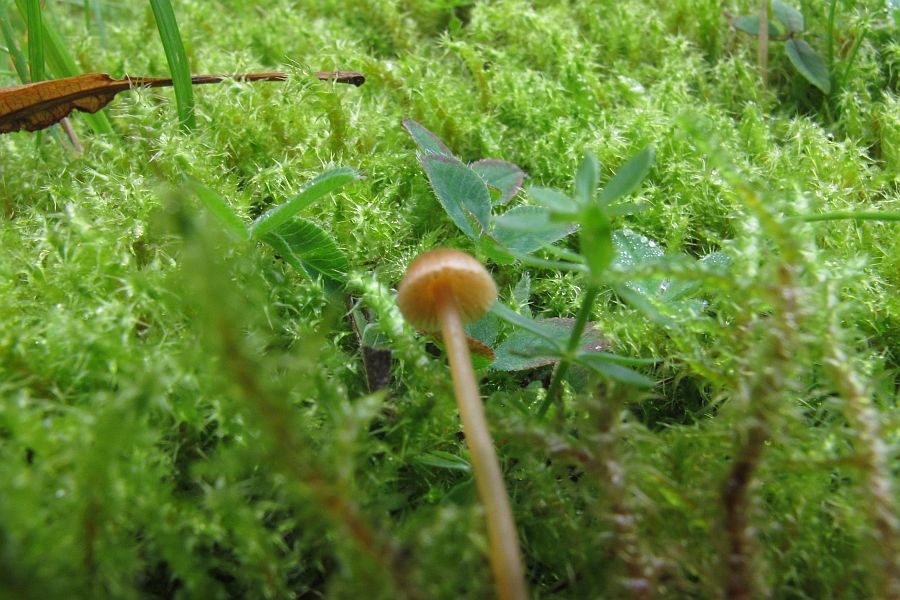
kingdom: Fungi
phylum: Basidiomycota
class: Agaricomycetes
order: Agaricales
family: Hymenogastraceae
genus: Galerina
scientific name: Galerina vittiformis
